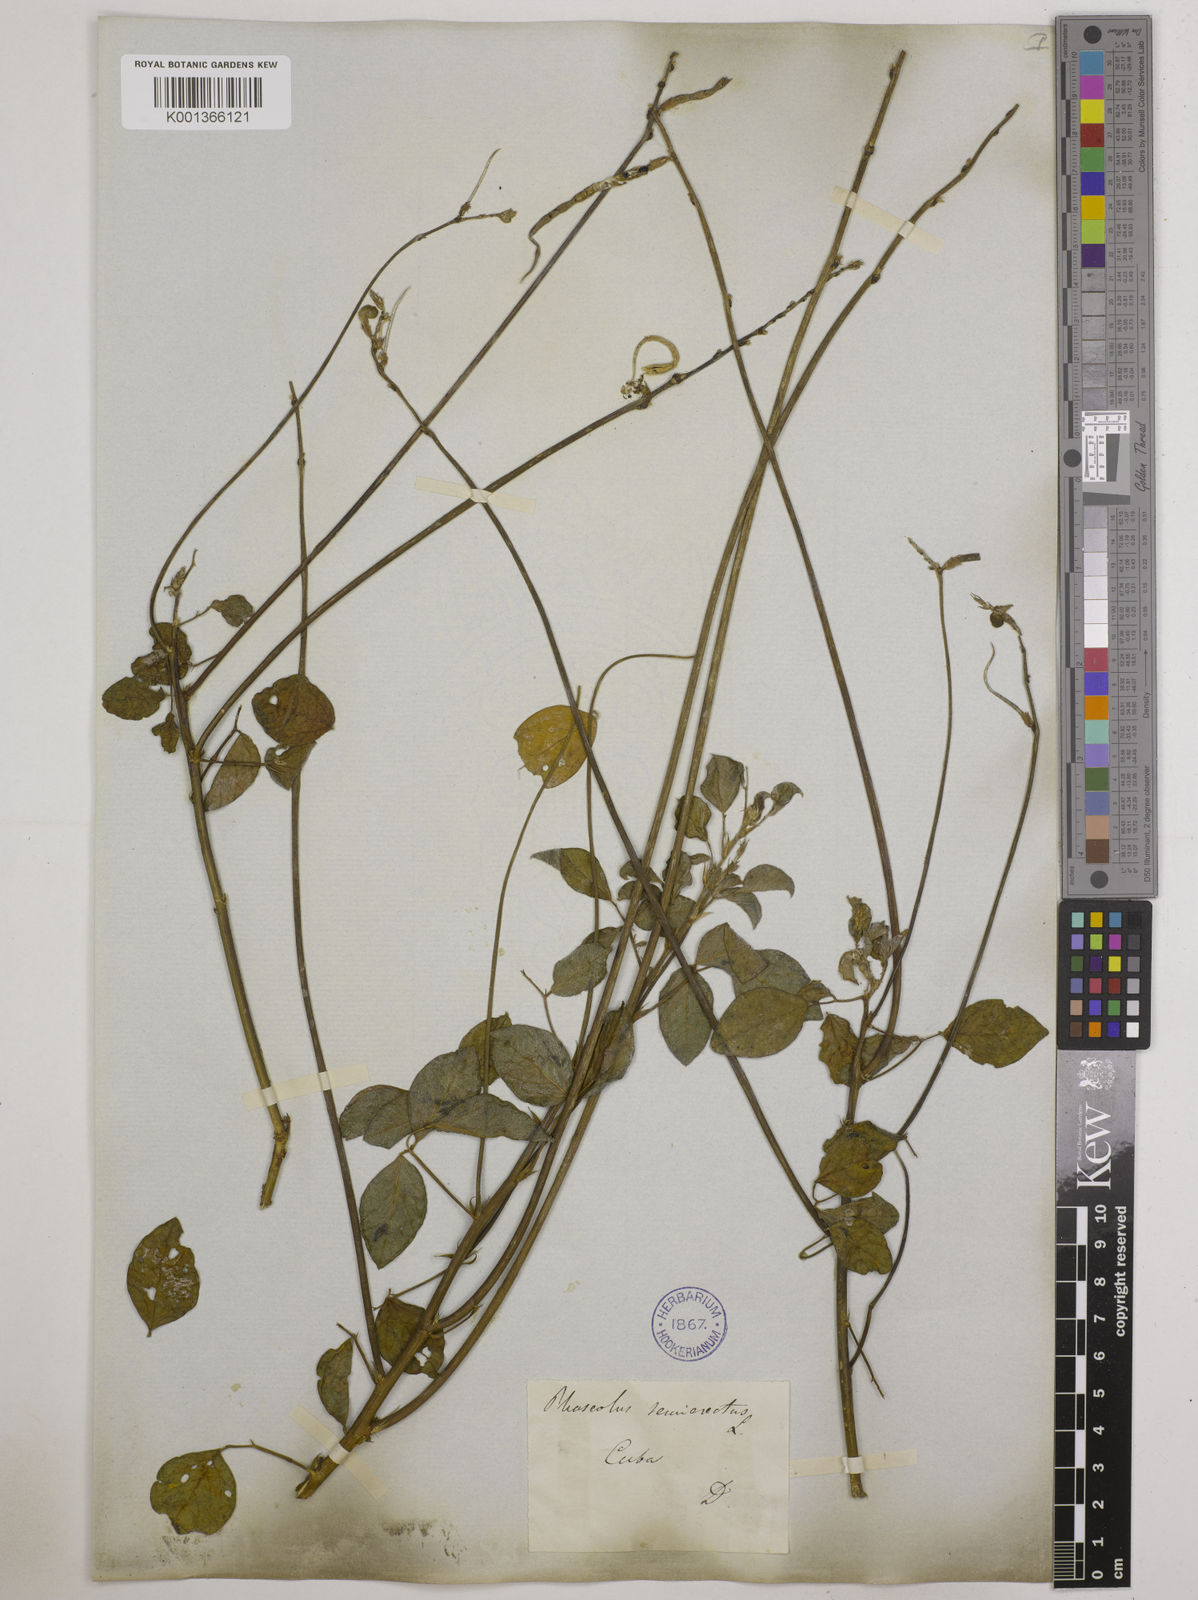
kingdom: Plantae
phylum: Tracheophyta
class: Magnoliopsida
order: Fabales
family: Fabaceae
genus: Macroptilium
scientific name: Macroptilium lathyroides
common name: Wild bushbean
